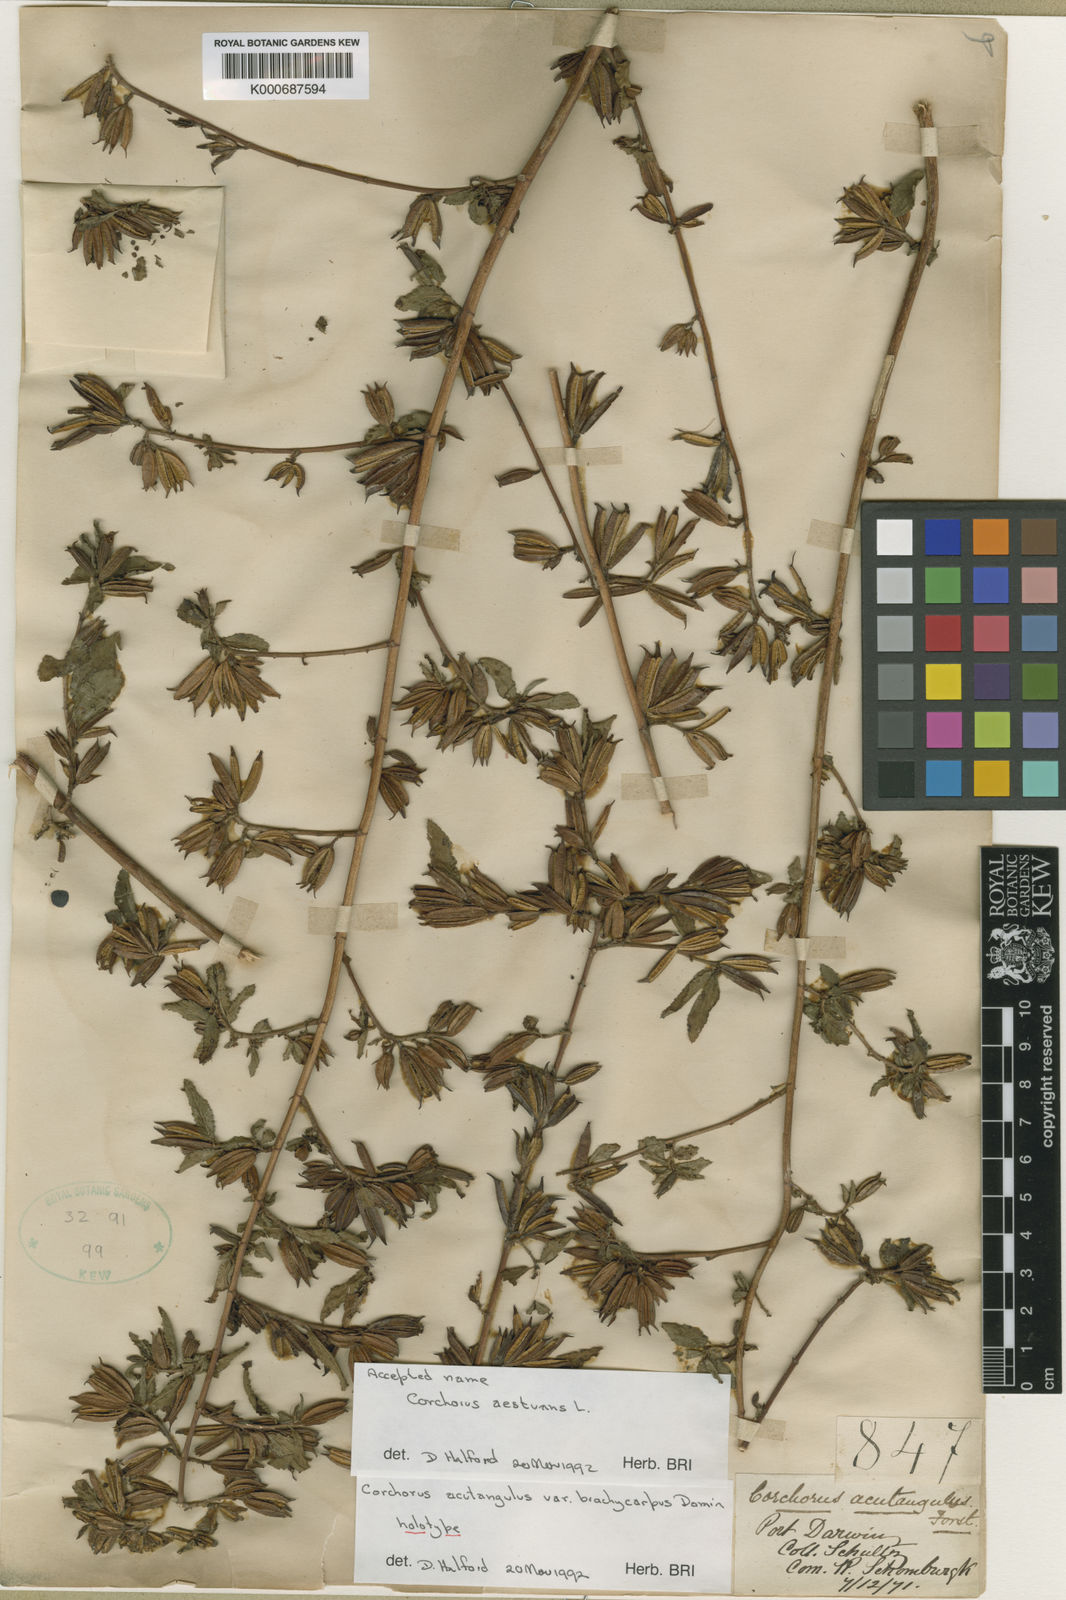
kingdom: Plantae
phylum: Tracheophyta
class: Magnoliopsida
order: Malvales
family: Malvaceae
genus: Corchorus
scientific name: Corchorus aestuans
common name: Jute
